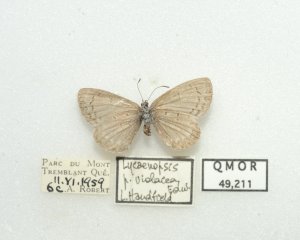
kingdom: Animalia
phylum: Arthropoda
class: Insecta
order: Lepidoptera
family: Lycaenidae
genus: Celastrina
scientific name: Celastrina lucia
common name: Northern Spring Azure
